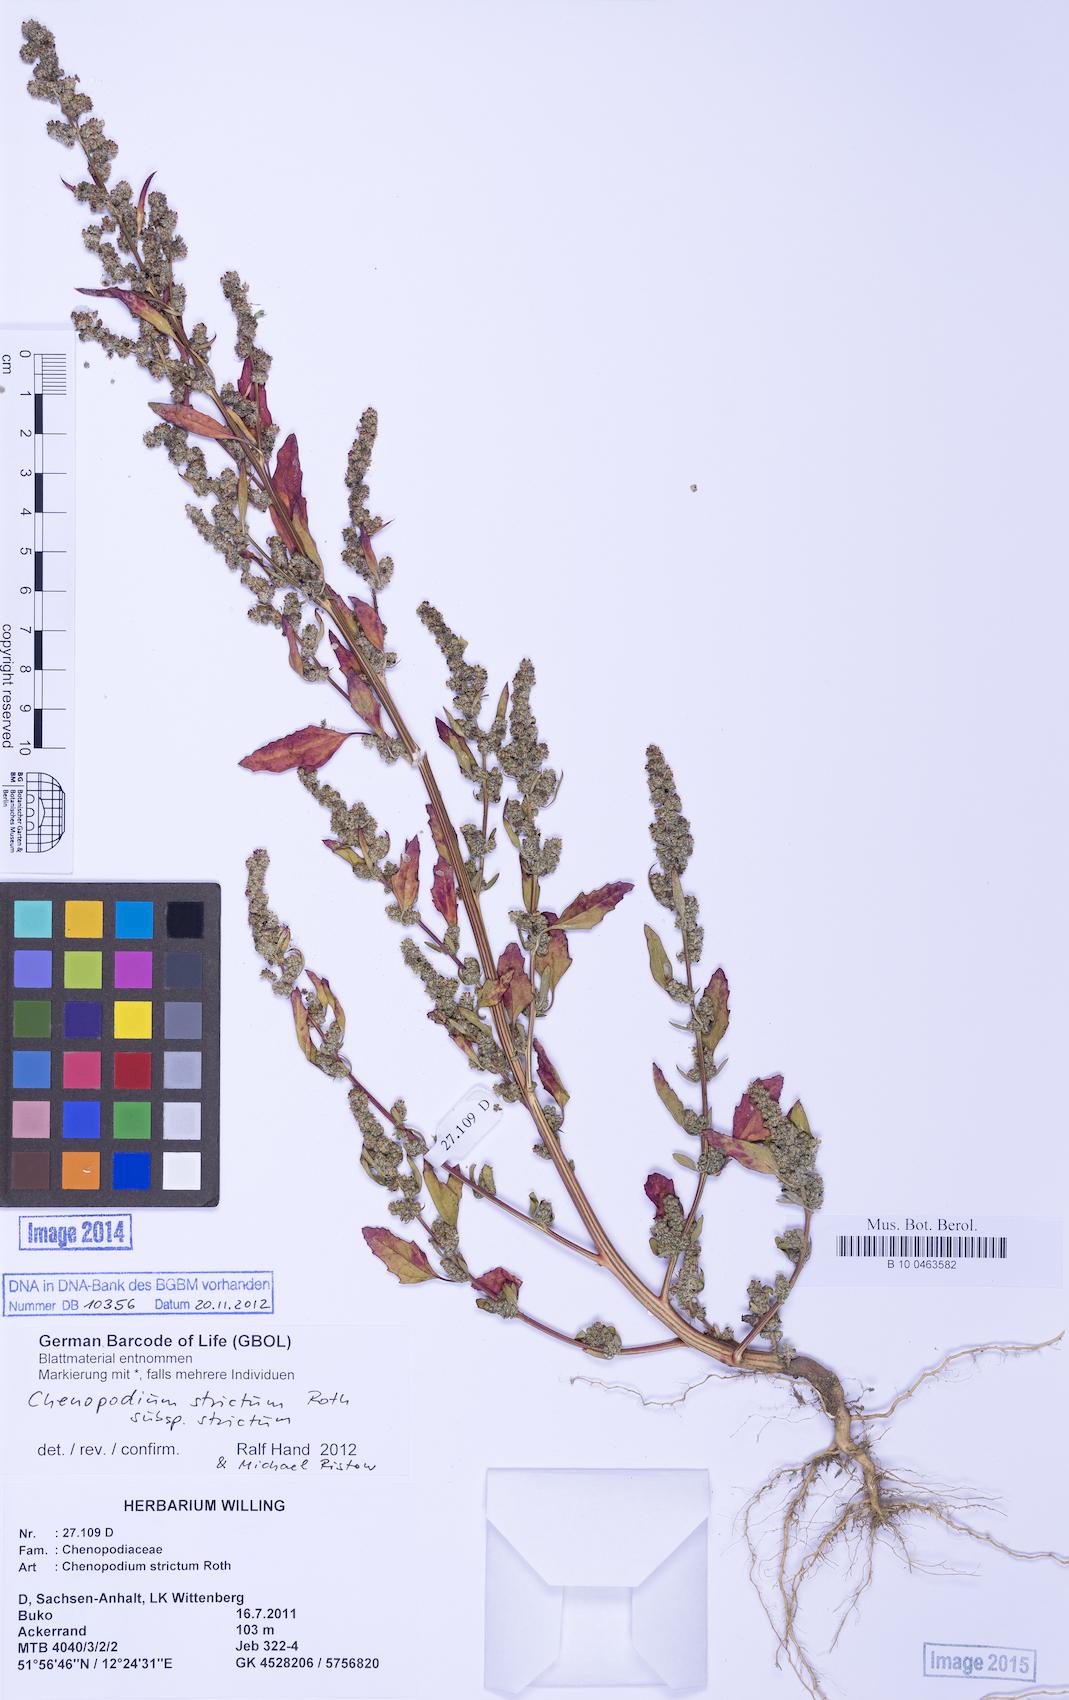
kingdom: Plantae
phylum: Tracheophyta
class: Magnoliopsida
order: Caryophyllales
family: Amaranthaceae
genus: Chenopodium
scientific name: Chenopodium album
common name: Fat-hen
